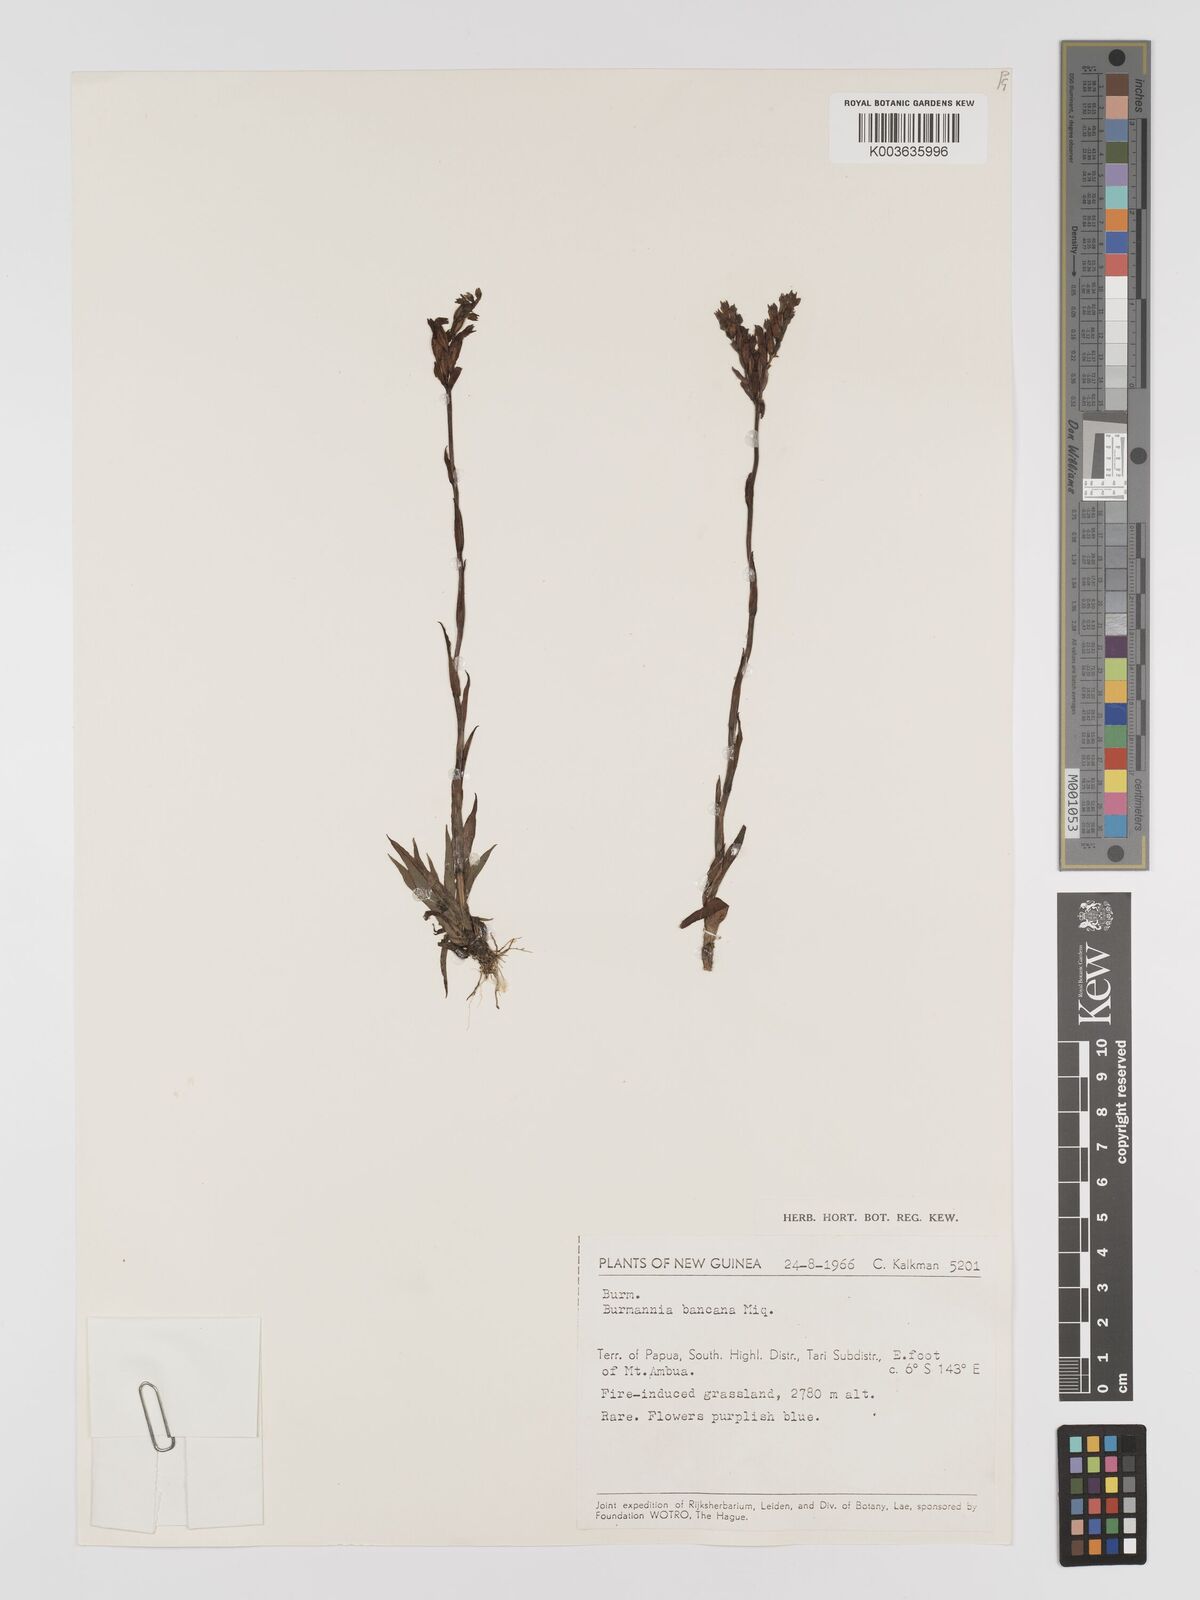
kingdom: Plantae
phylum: Tracheophyta
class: Liliopsida
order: Dioscoreales
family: Burmanniaceae
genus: Burmannia
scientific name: Burmannia disticha
